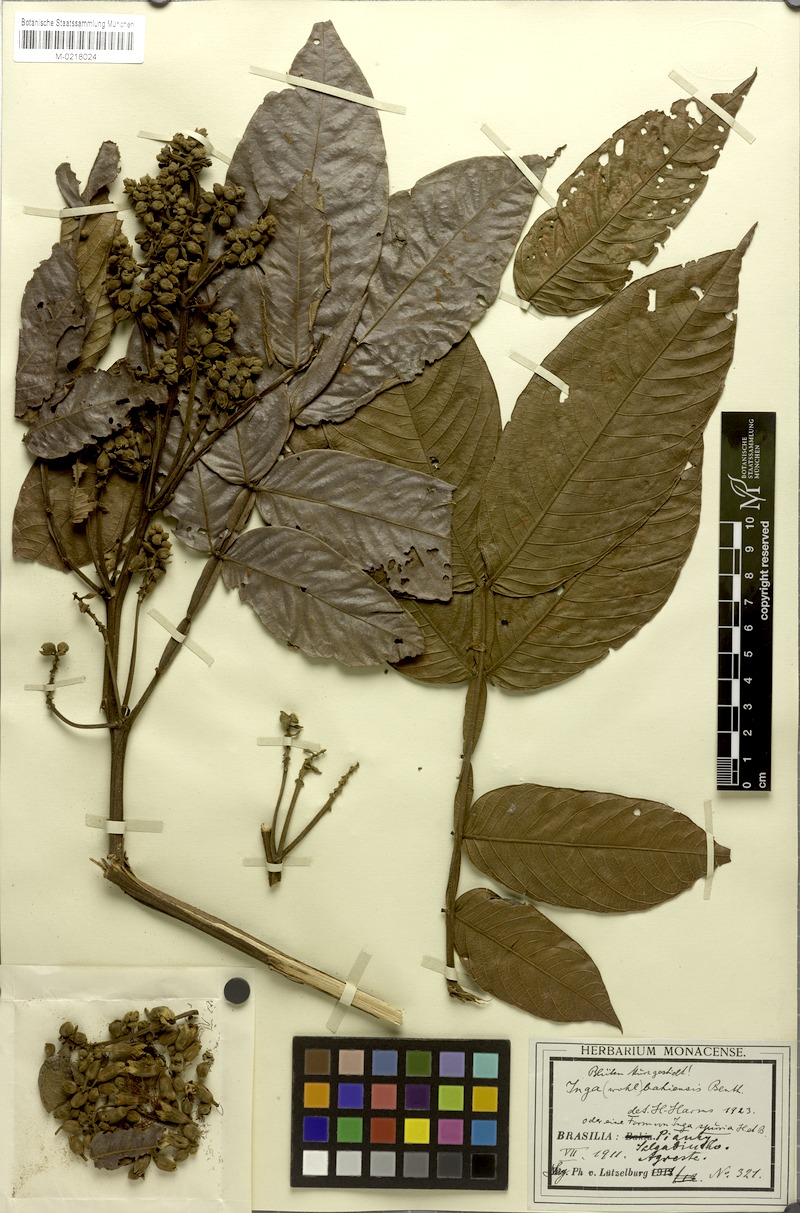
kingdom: Plantae
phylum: Tracheophyta
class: Magnoliopsida
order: Fabales
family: Fabaceae
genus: Inga
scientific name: Inga ingoides
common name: Spanish ash
